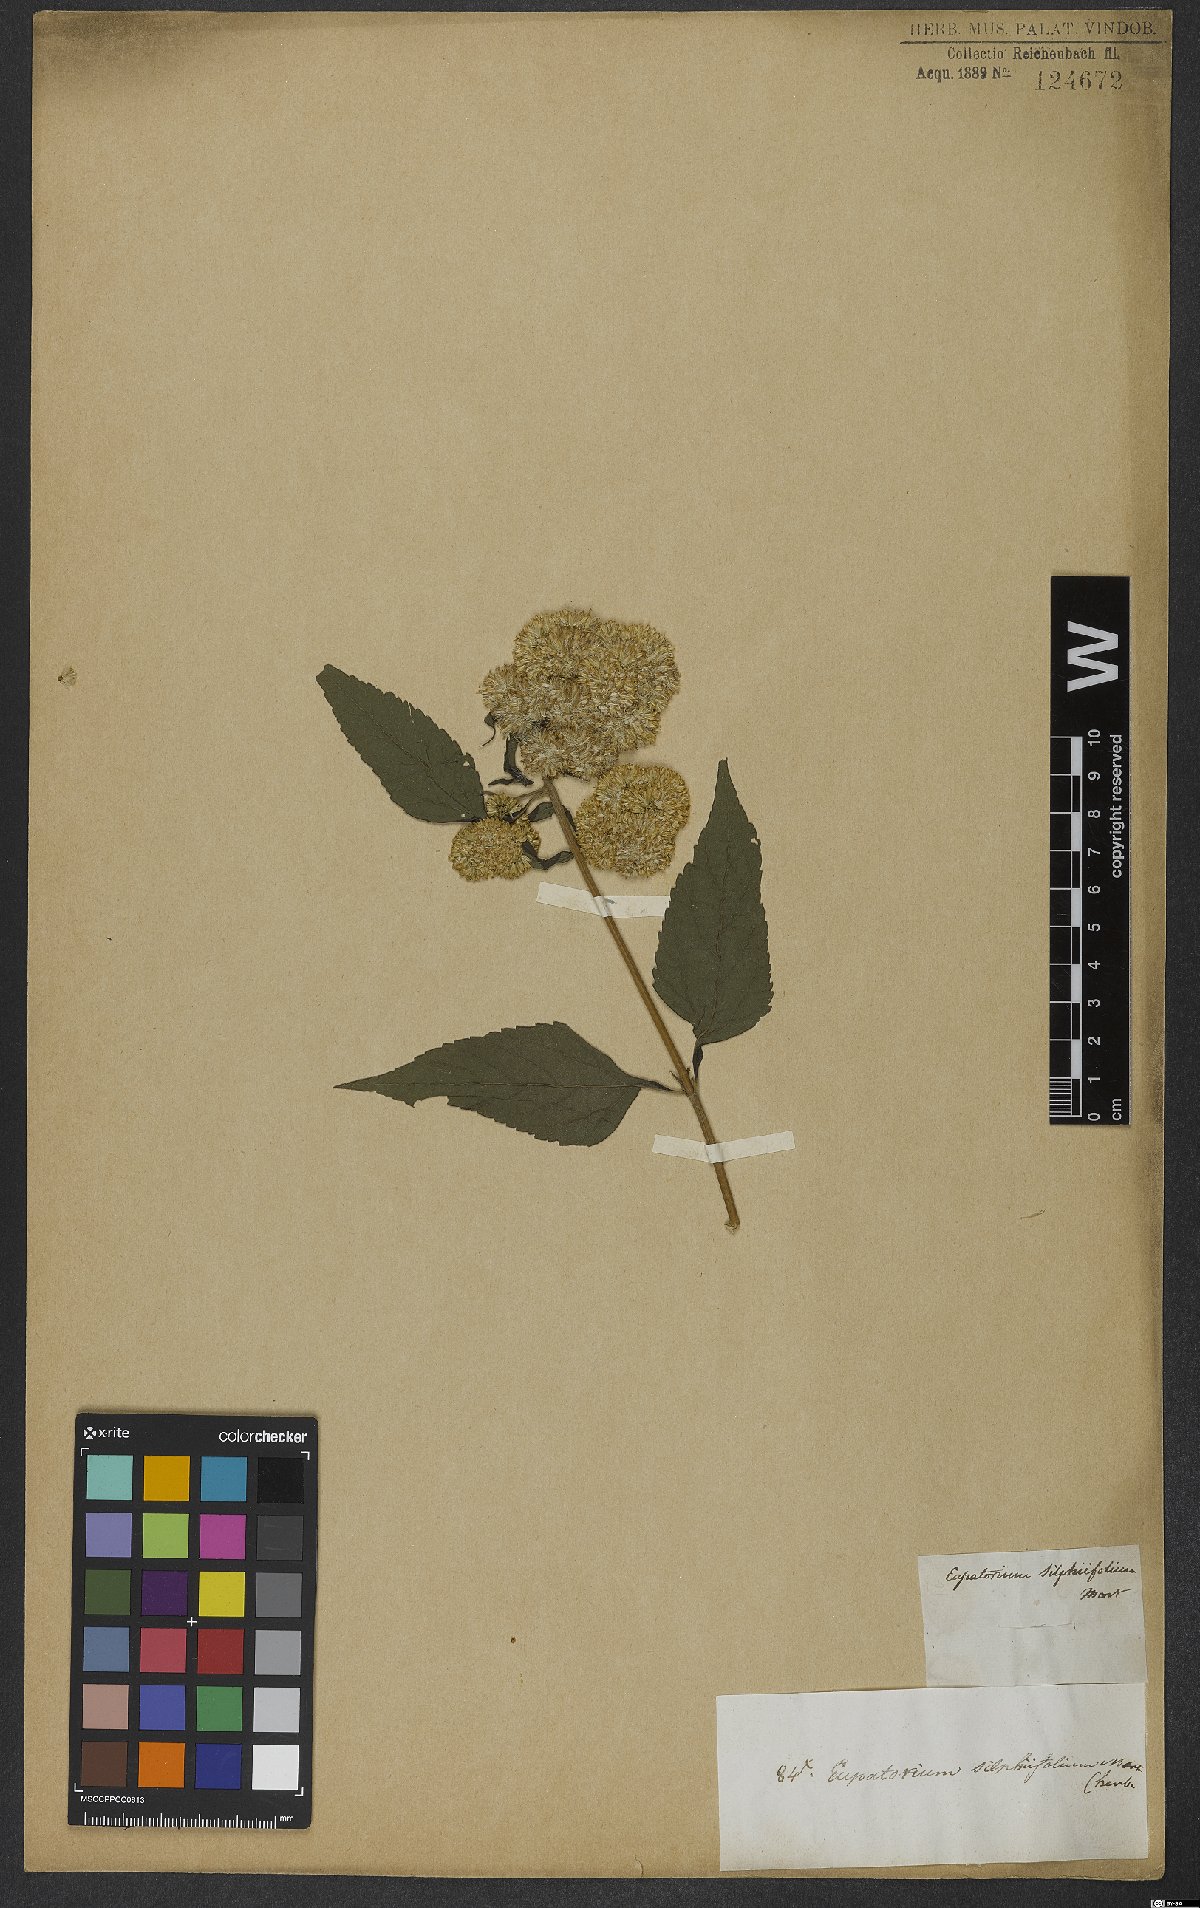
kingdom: Plantae
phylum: Tracheophyta
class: Magnoliopsida
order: Asterales
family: Asteraceae
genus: Austroeupatorium
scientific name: Austroeupatorium silphiifolium
